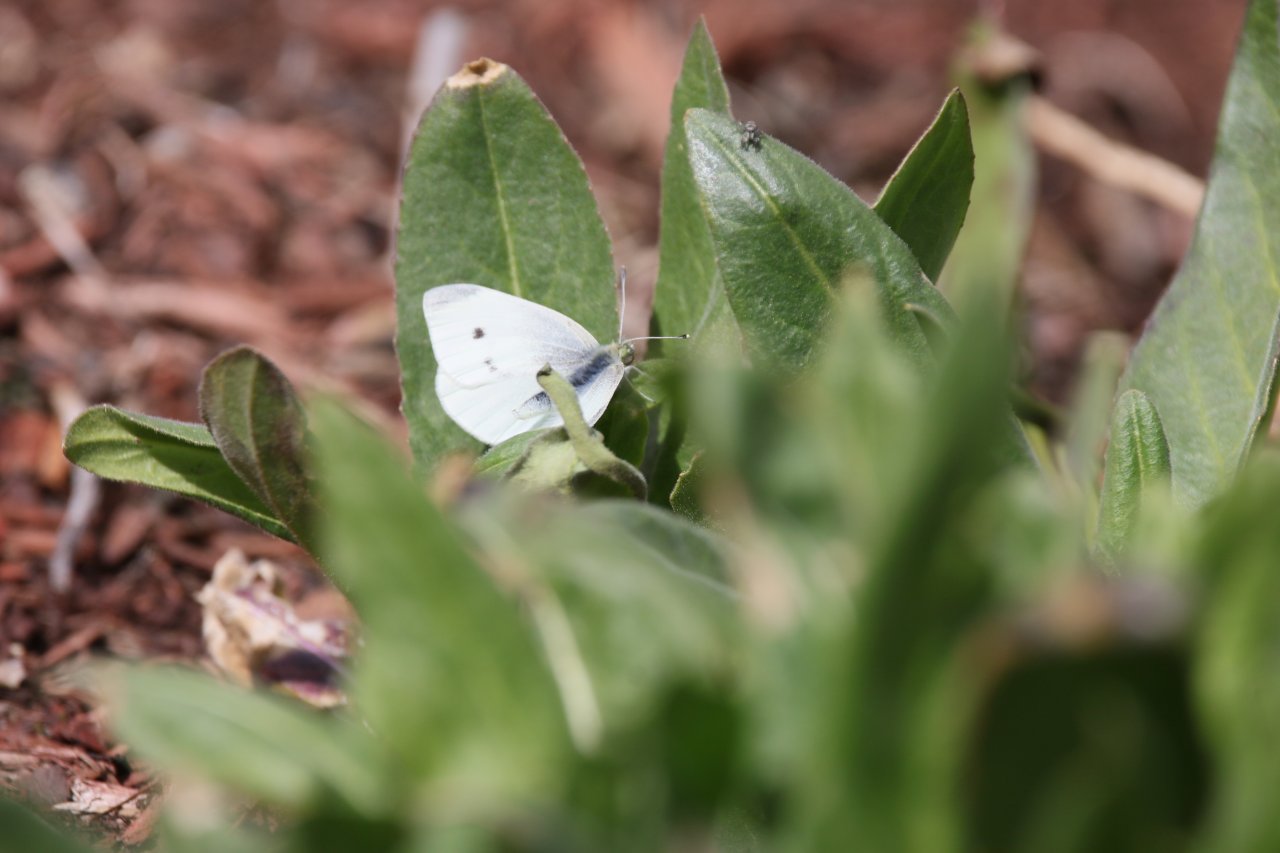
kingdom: Animalia
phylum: Arthropoda
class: Insecta
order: Lepidoptera
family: Pieridae
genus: Pieris
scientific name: Pieris rapae
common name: Cabbage White
